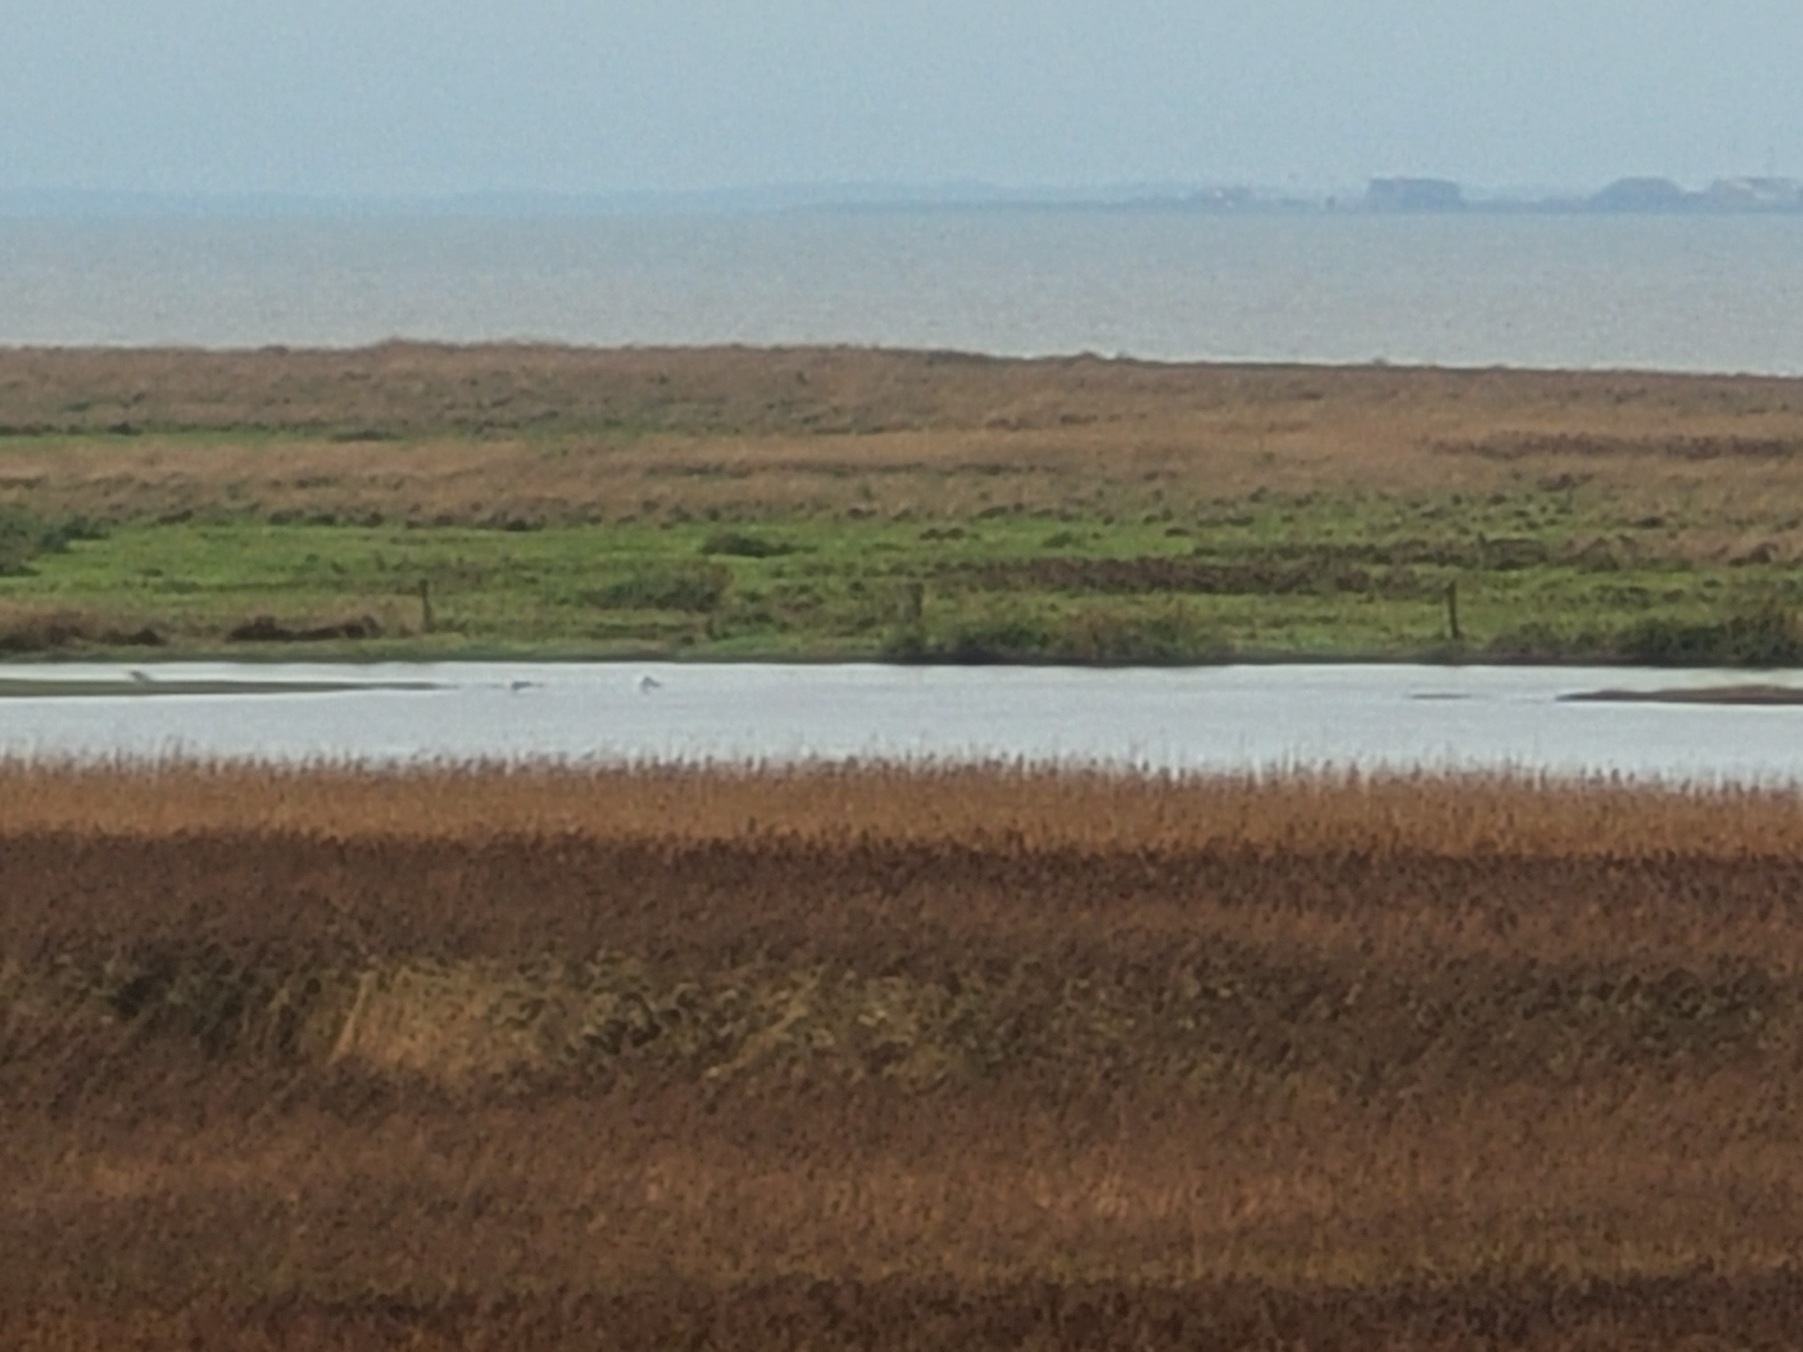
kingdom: Animalia
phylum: Chordata
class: Aves
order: Charadriiformes
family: Laridae
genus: Larus
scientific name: Larus hyperboreus
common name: Gråmåge
